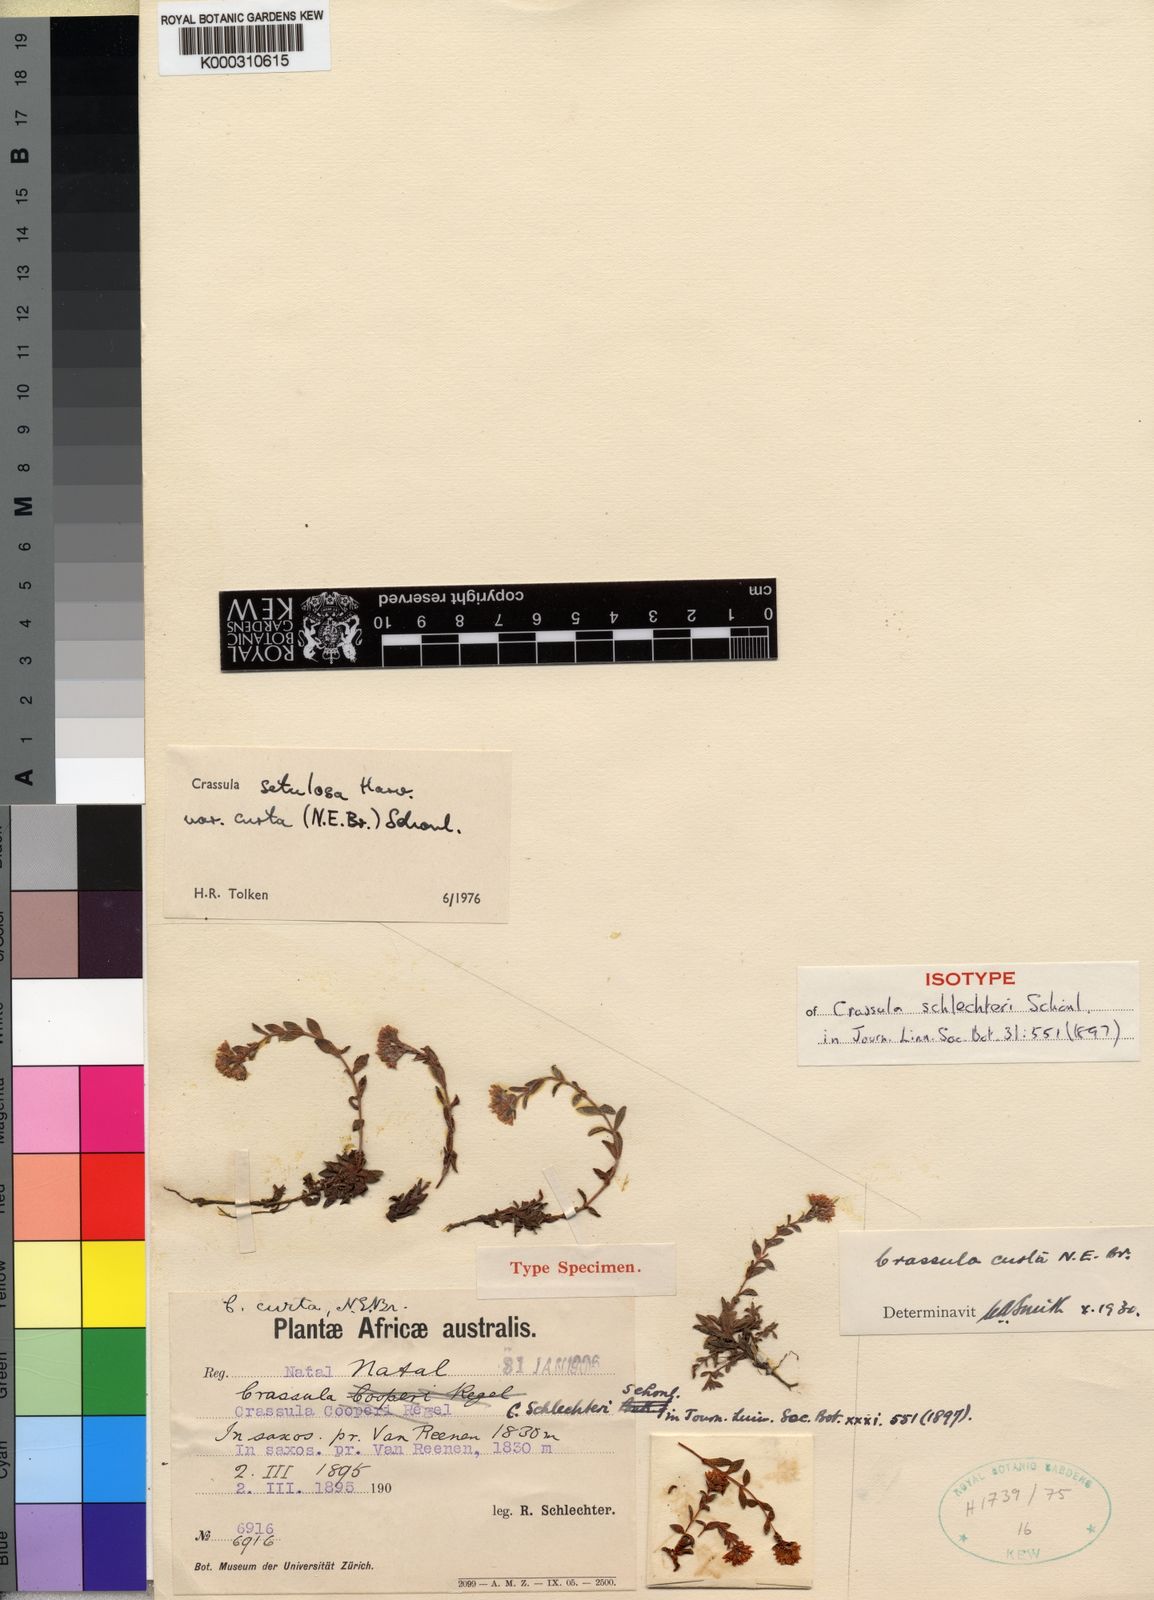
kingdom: Plantae
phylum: Tracheophyta
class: Magnoliopsida
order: Saxifragales
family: Crassulaceae
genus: Crassula
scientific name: Crassula setulosa
